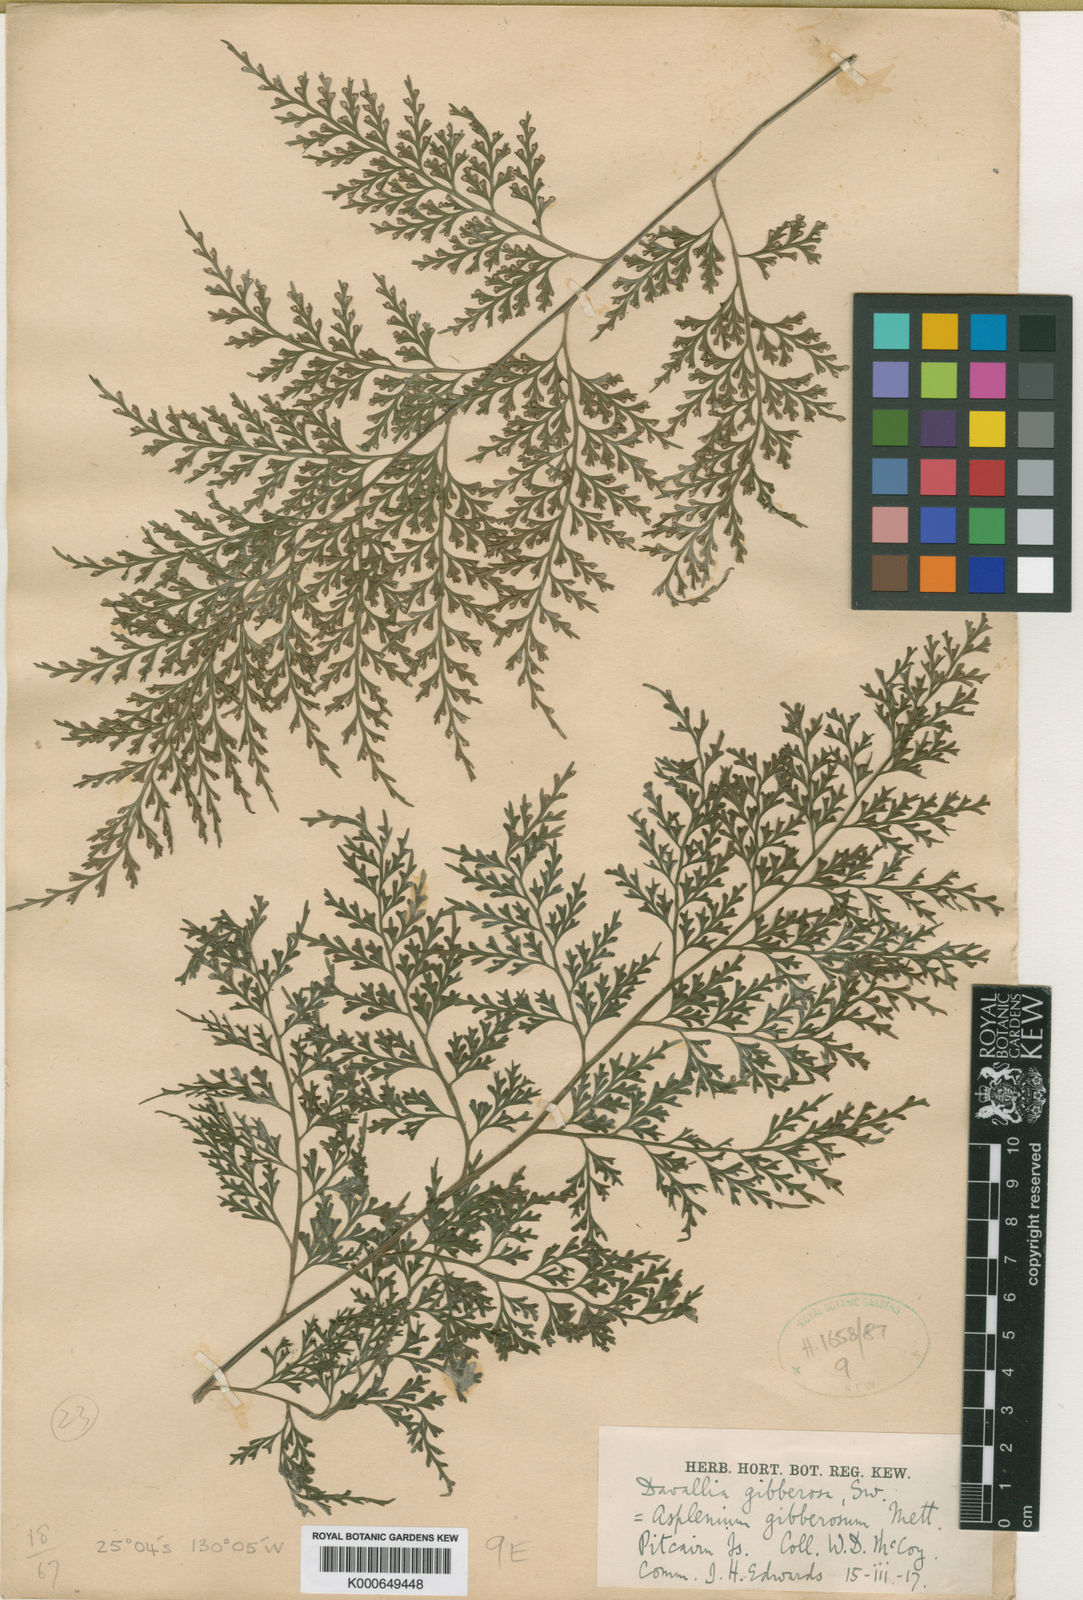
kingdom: Plantae
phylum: Tracheophyta
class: Polypodiopsida
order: Polypodiales
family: Aspleniaceae
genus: Asplenium
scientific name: Asplenium gibberosum
